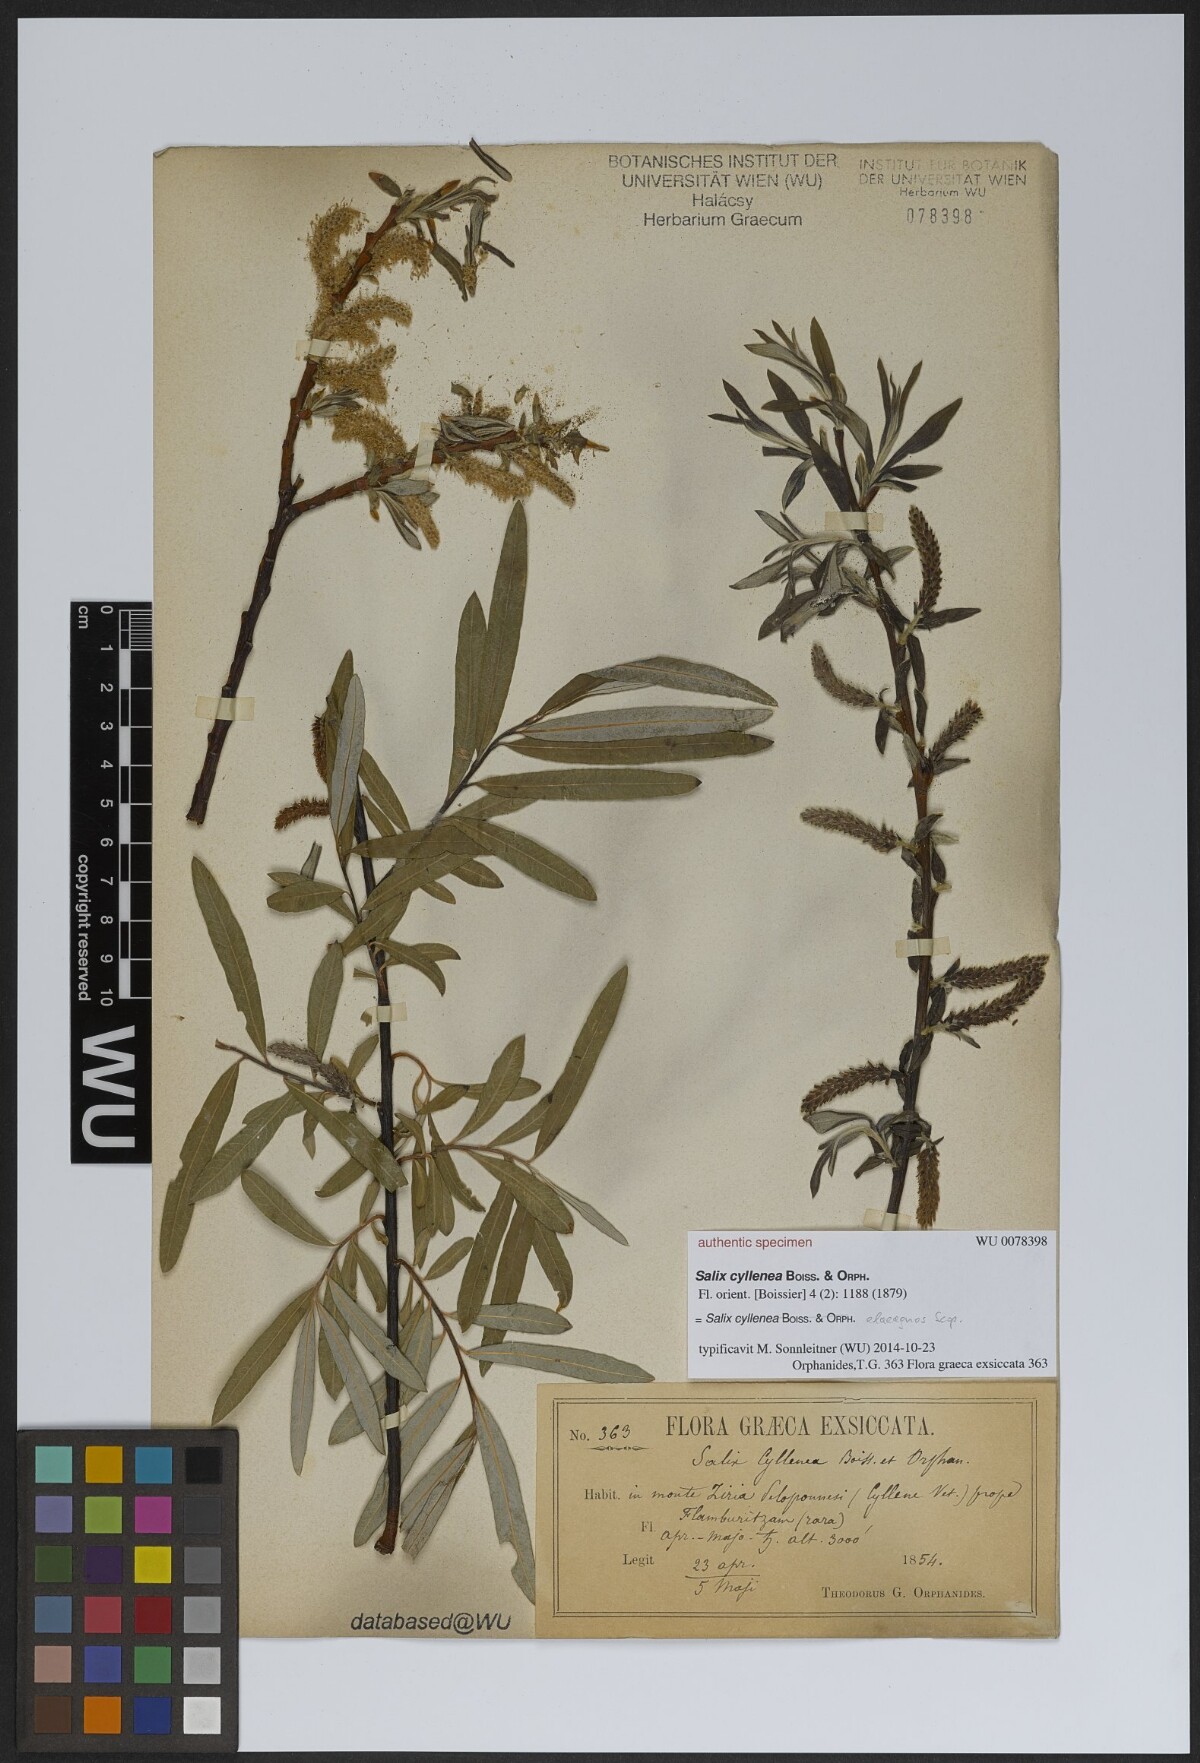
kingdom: Plantae
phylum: Tracheophyta
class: Magnoliopsida
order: Malpighiales
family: Salicaceae
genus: Salix
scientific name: Salix eleagnos
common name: Elaeagnus willow
